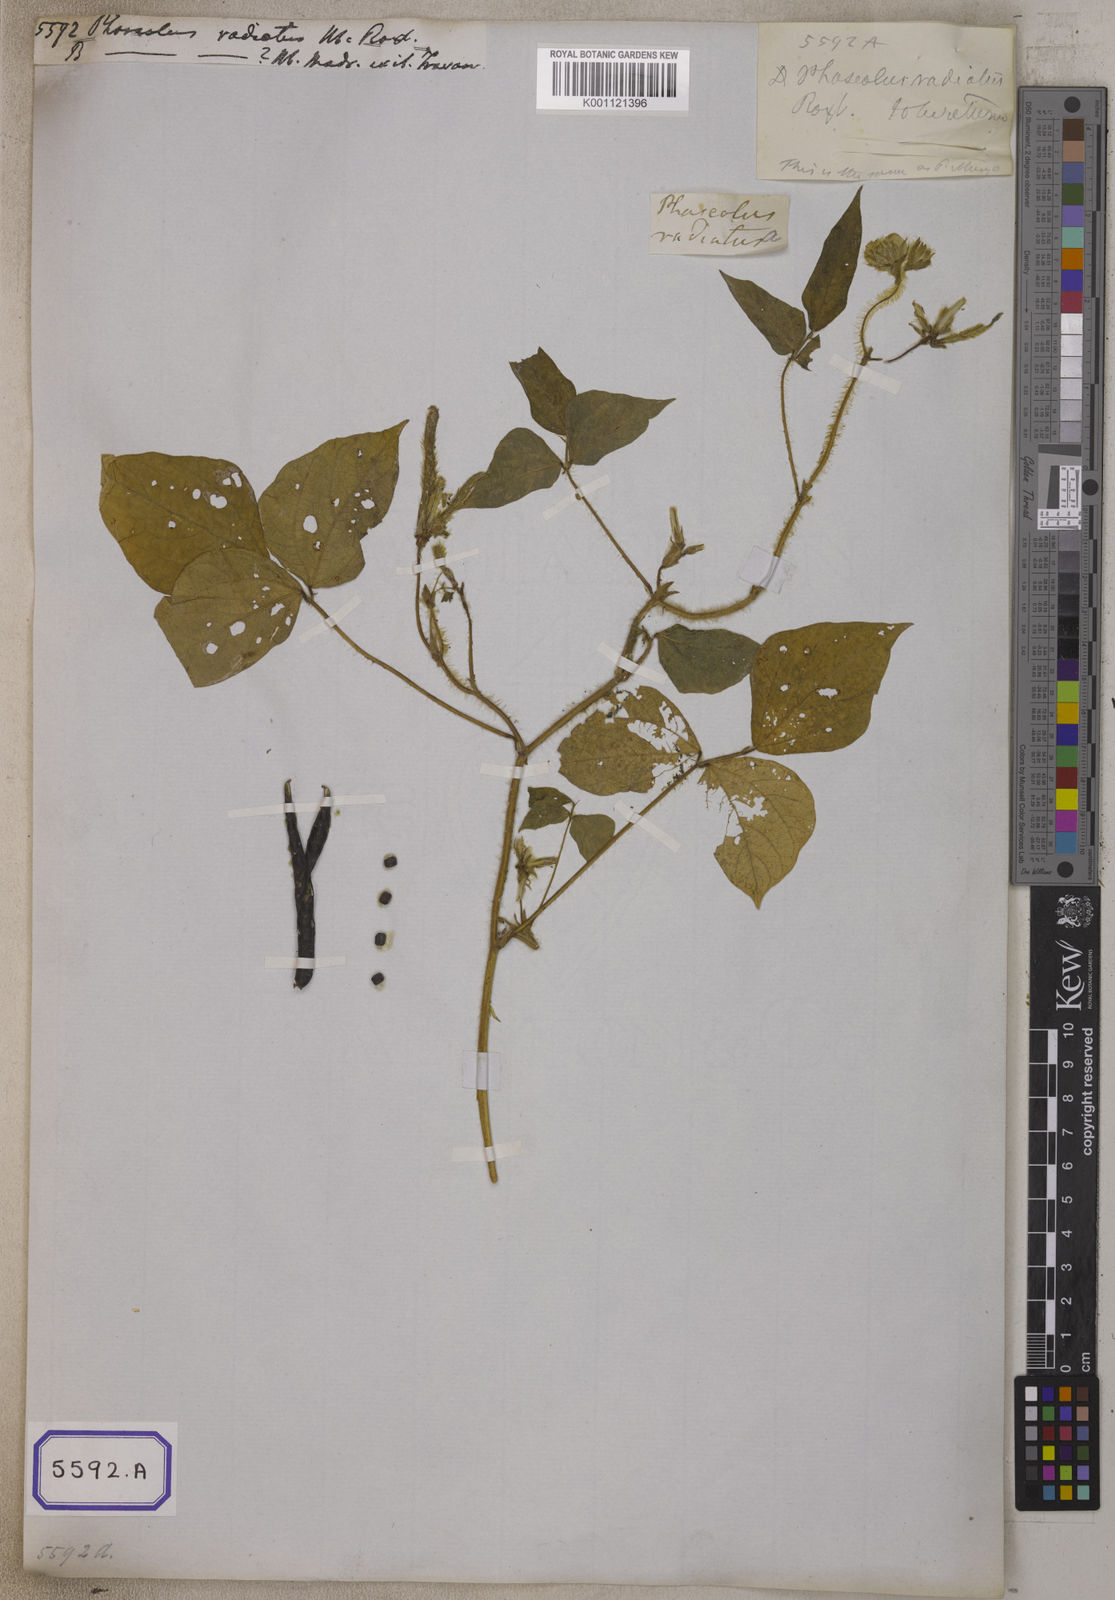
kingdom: Plantae
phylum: Tracheophyta
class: Magnoliopsida
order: Fabales
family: Fabaceae
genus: Vigna
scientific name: Vigna radiata
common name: Mung-bean
